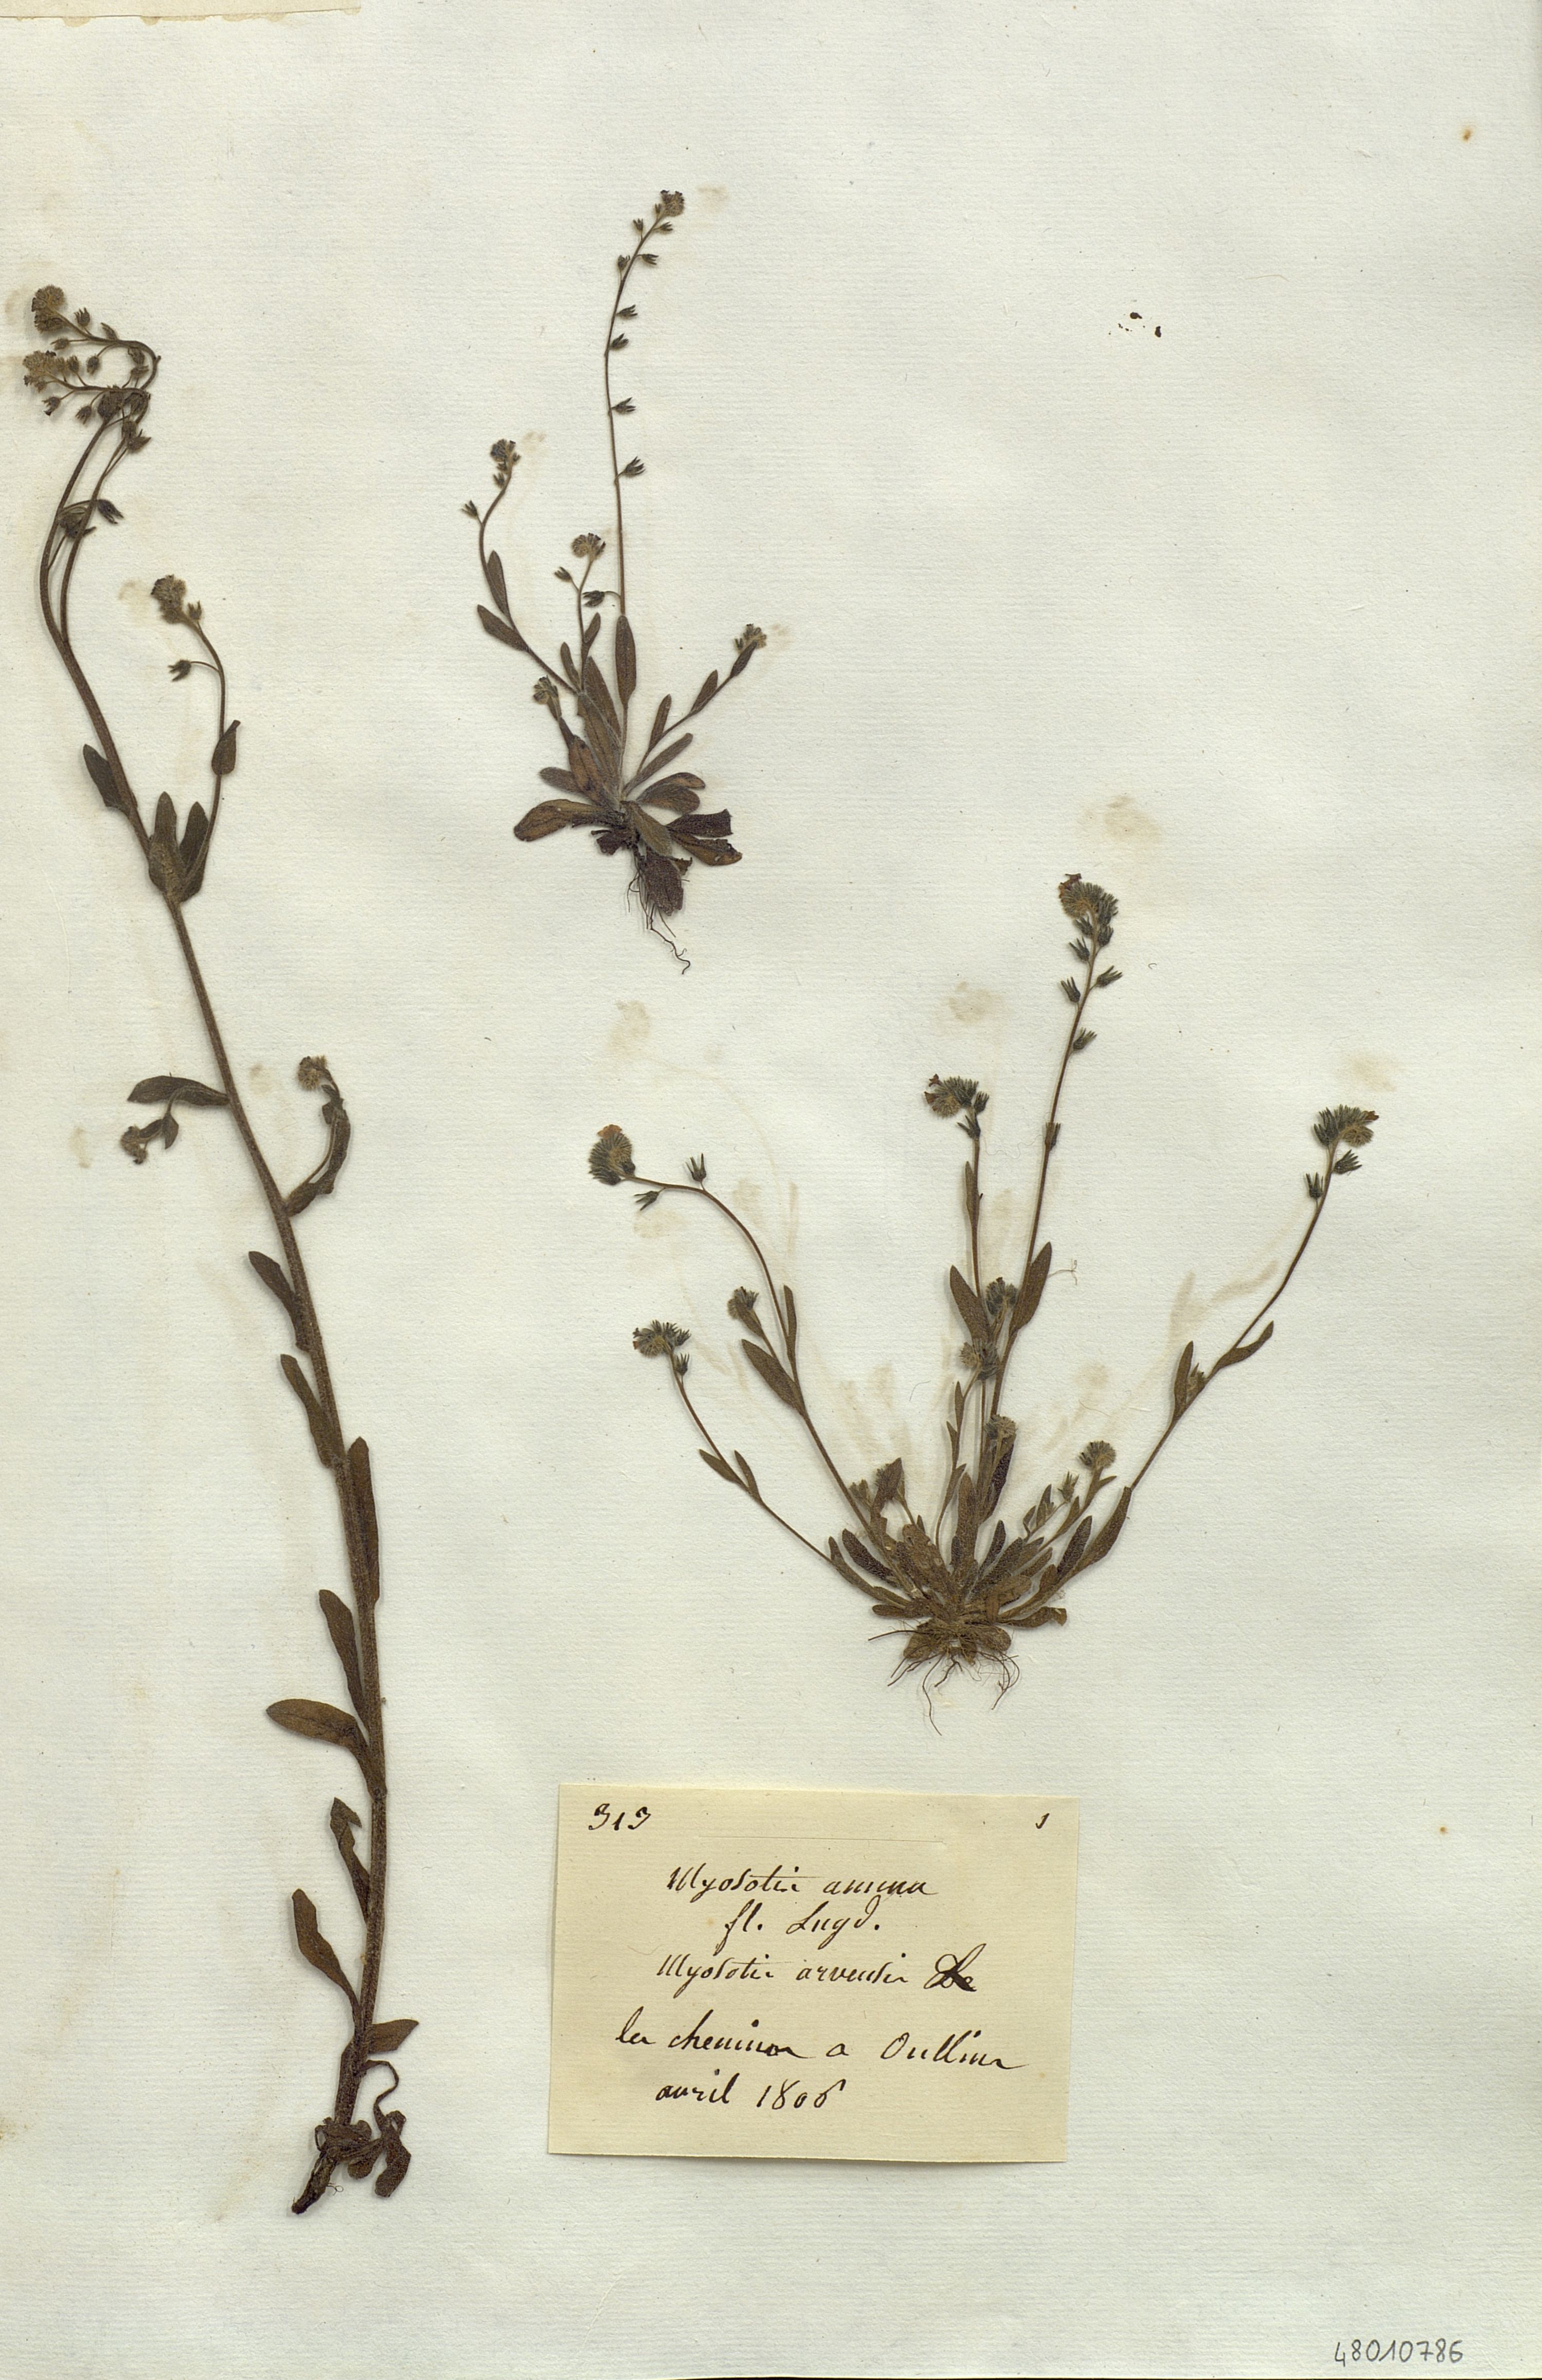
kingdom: Plantae
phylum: Tracheophyta
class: Magnoliopsida
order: Boraginales
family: Boraginaceae
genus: Myosotis
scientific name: Myosotis arvensis
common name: Field forget-me-not
